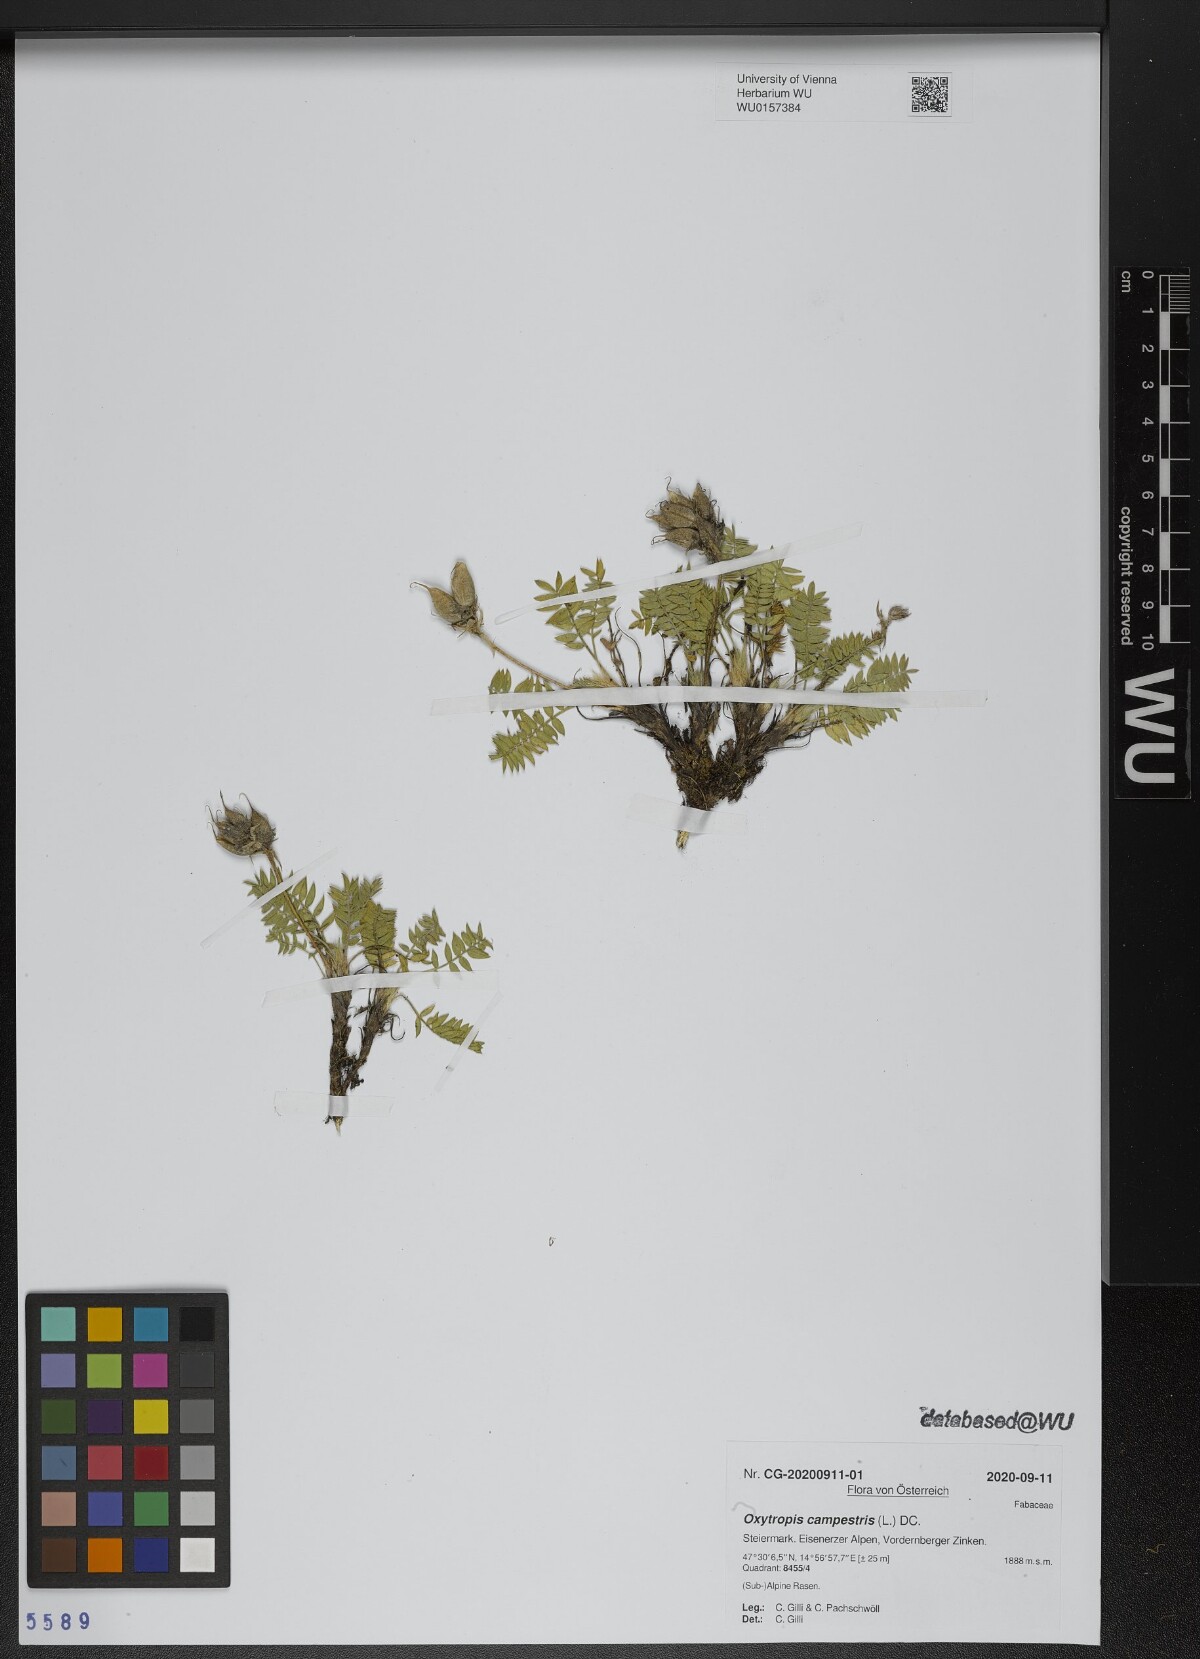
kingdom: Plantae
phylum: Tracheophyta
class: Magnoliopsida
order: Fabales
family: Fabaceae
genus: Oxytropis
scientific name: Oxytropis campestris
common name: Field locoweed
